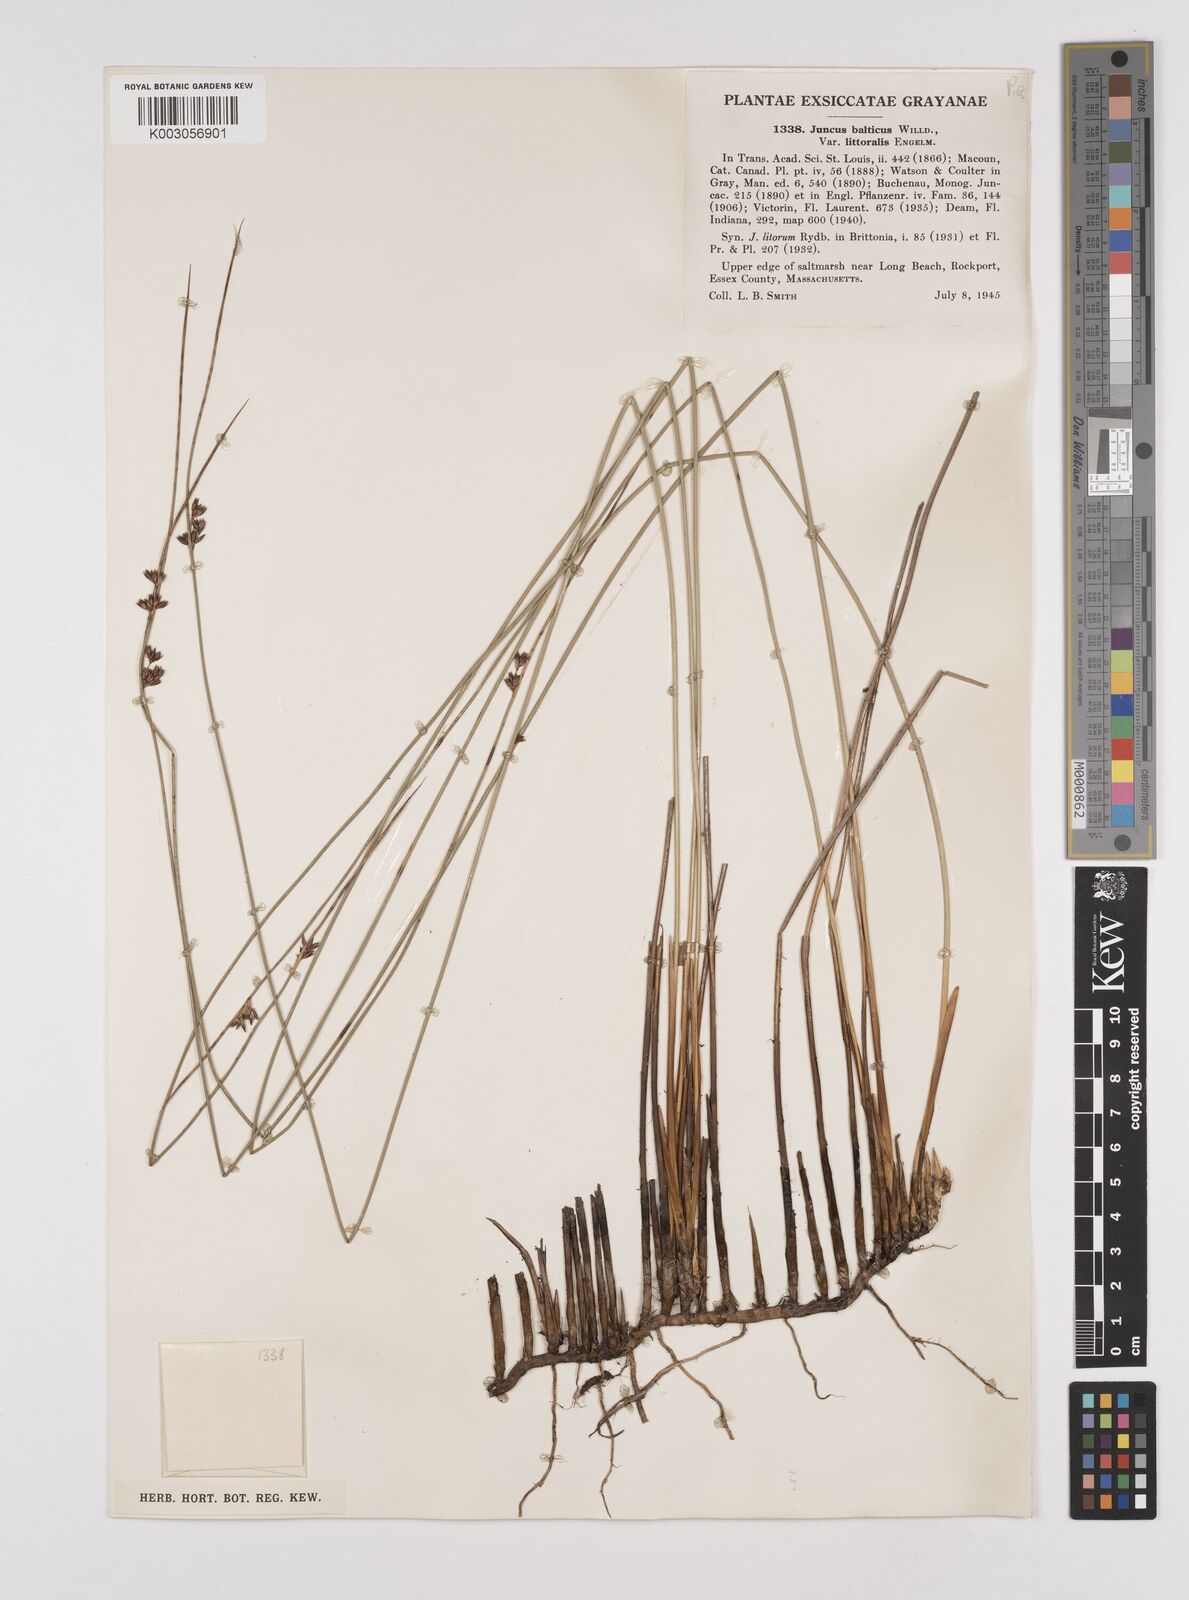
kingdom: Plantae
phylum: Tracheophyta
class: Liliopsida
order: Poales
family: Juncaceae
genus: Juncus
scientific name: Juncus balticus
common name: Baltic rush
